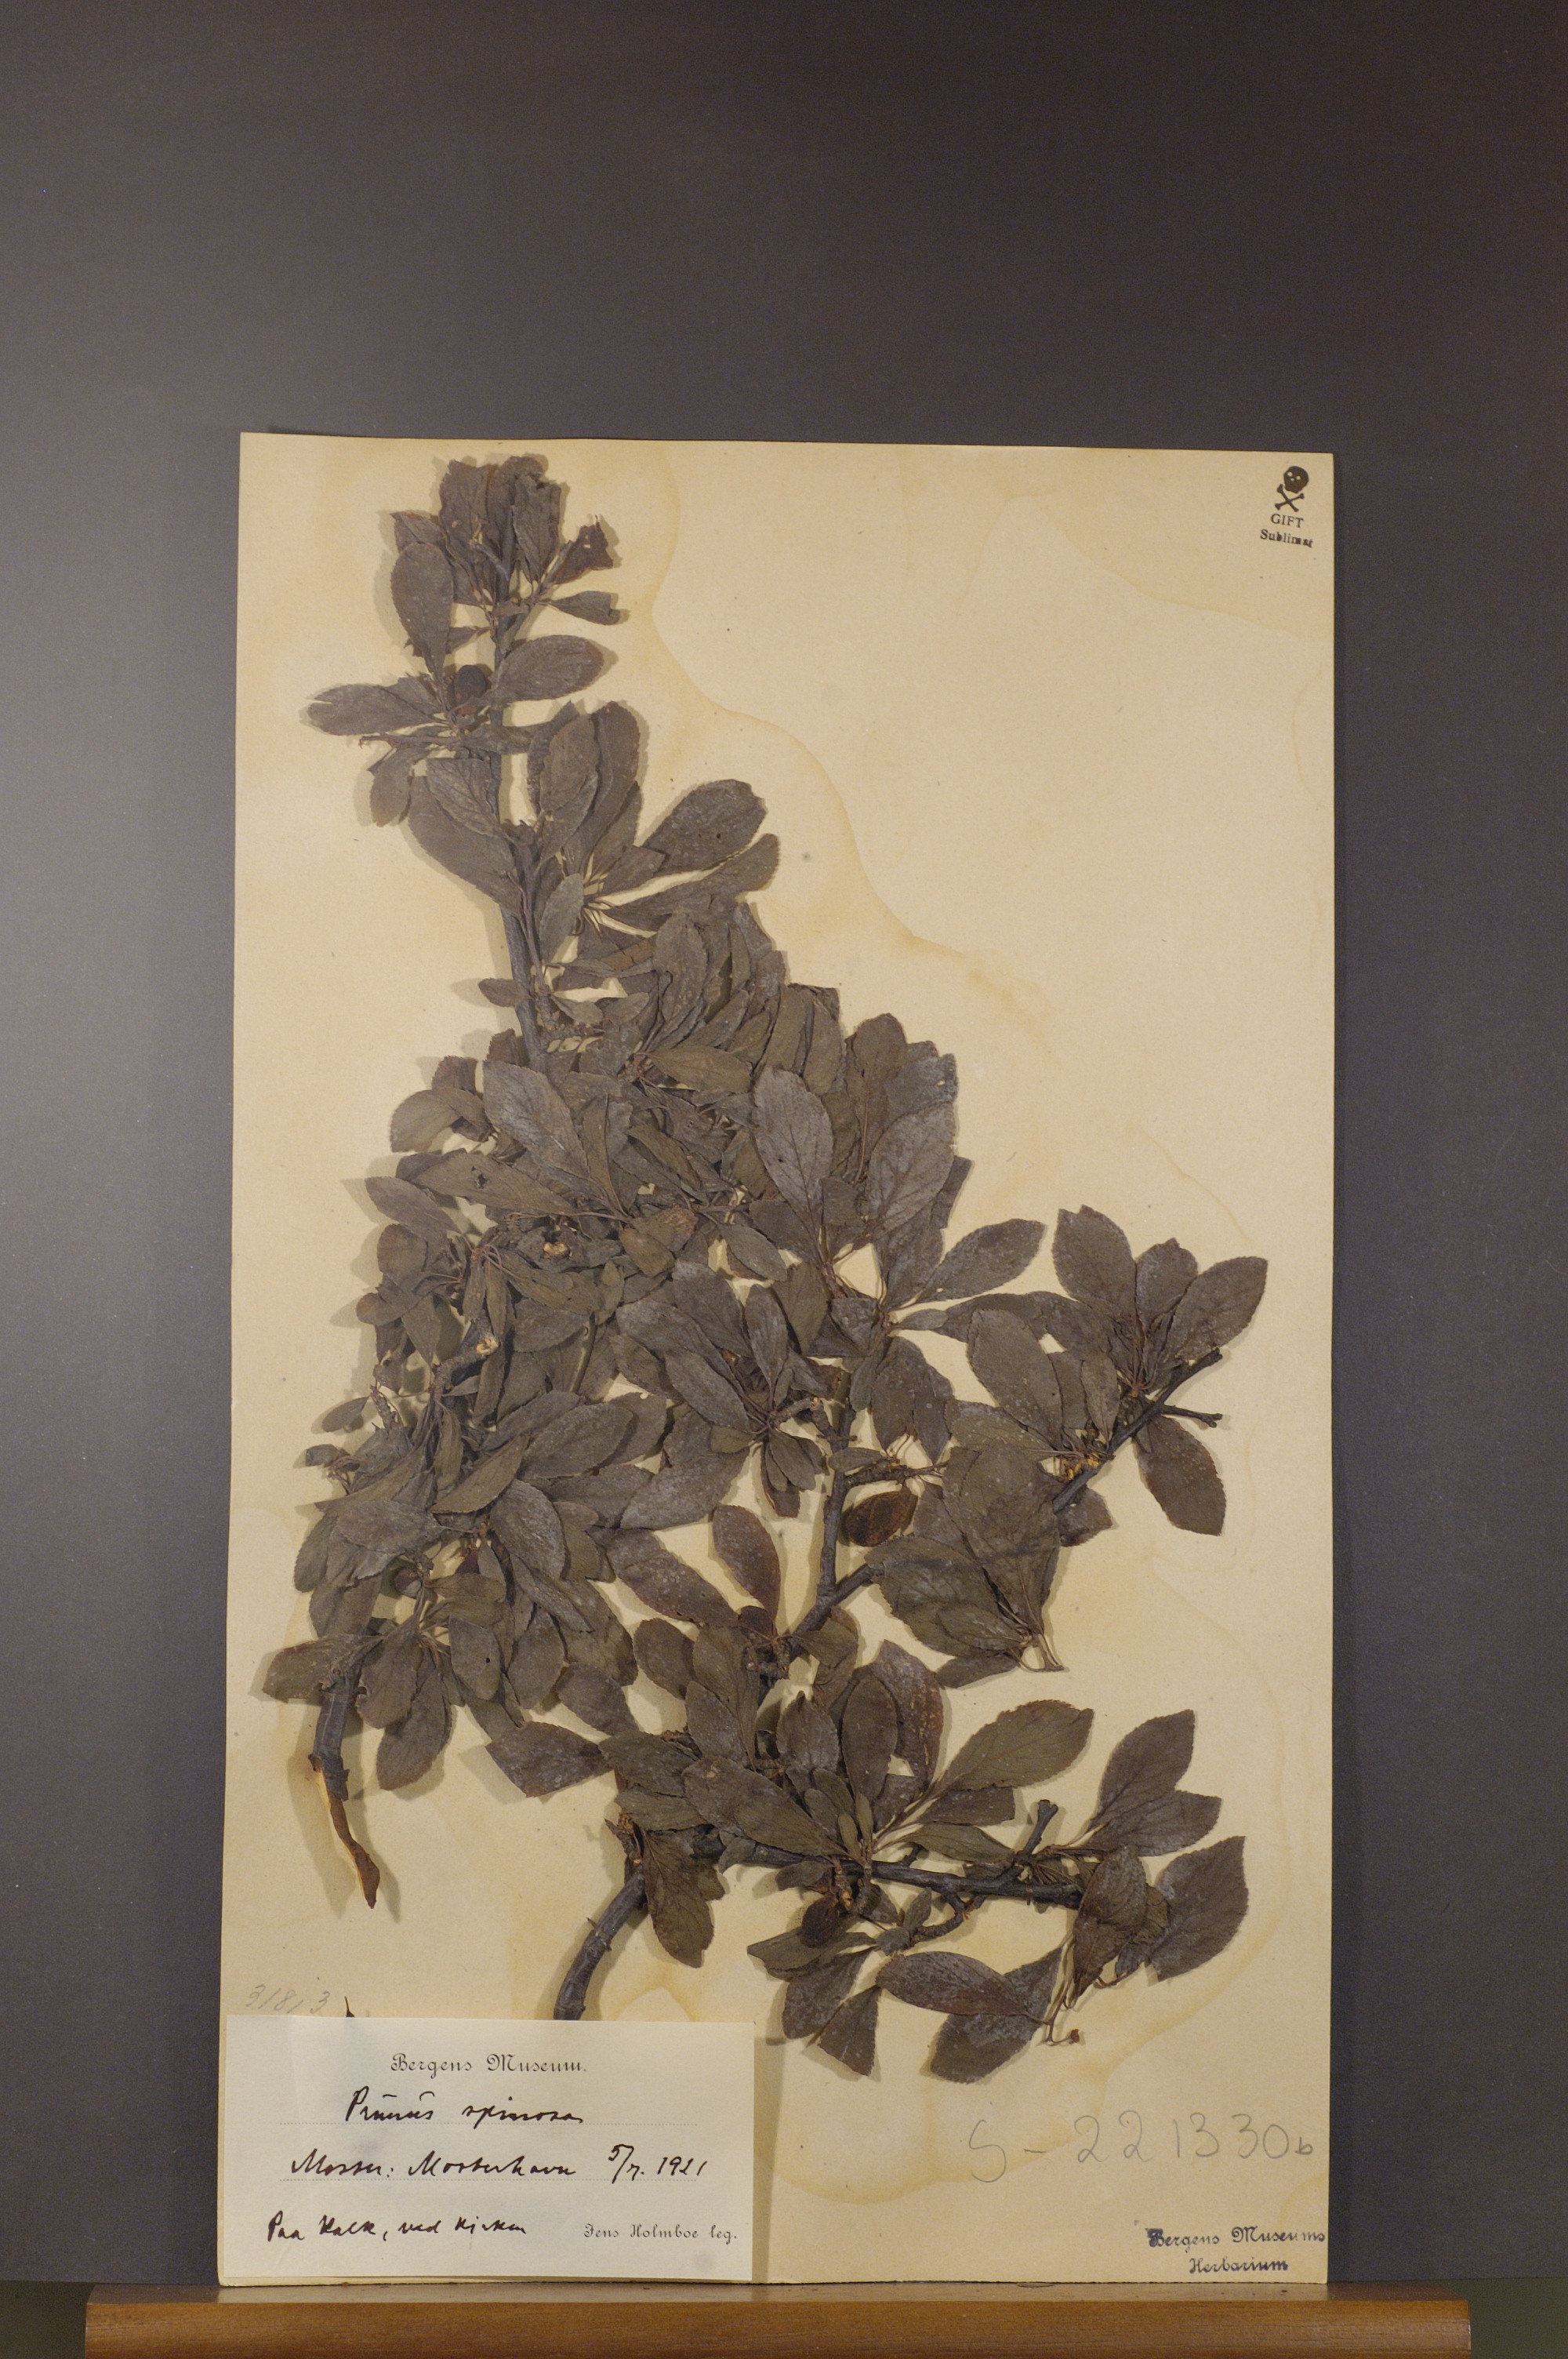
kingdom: Plantae
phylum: Tracheophyta
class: Magnoliopsida
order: Rosales
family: Rosaceae
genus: Prunus
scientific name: Prunus spinosa
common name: Blackthorn
